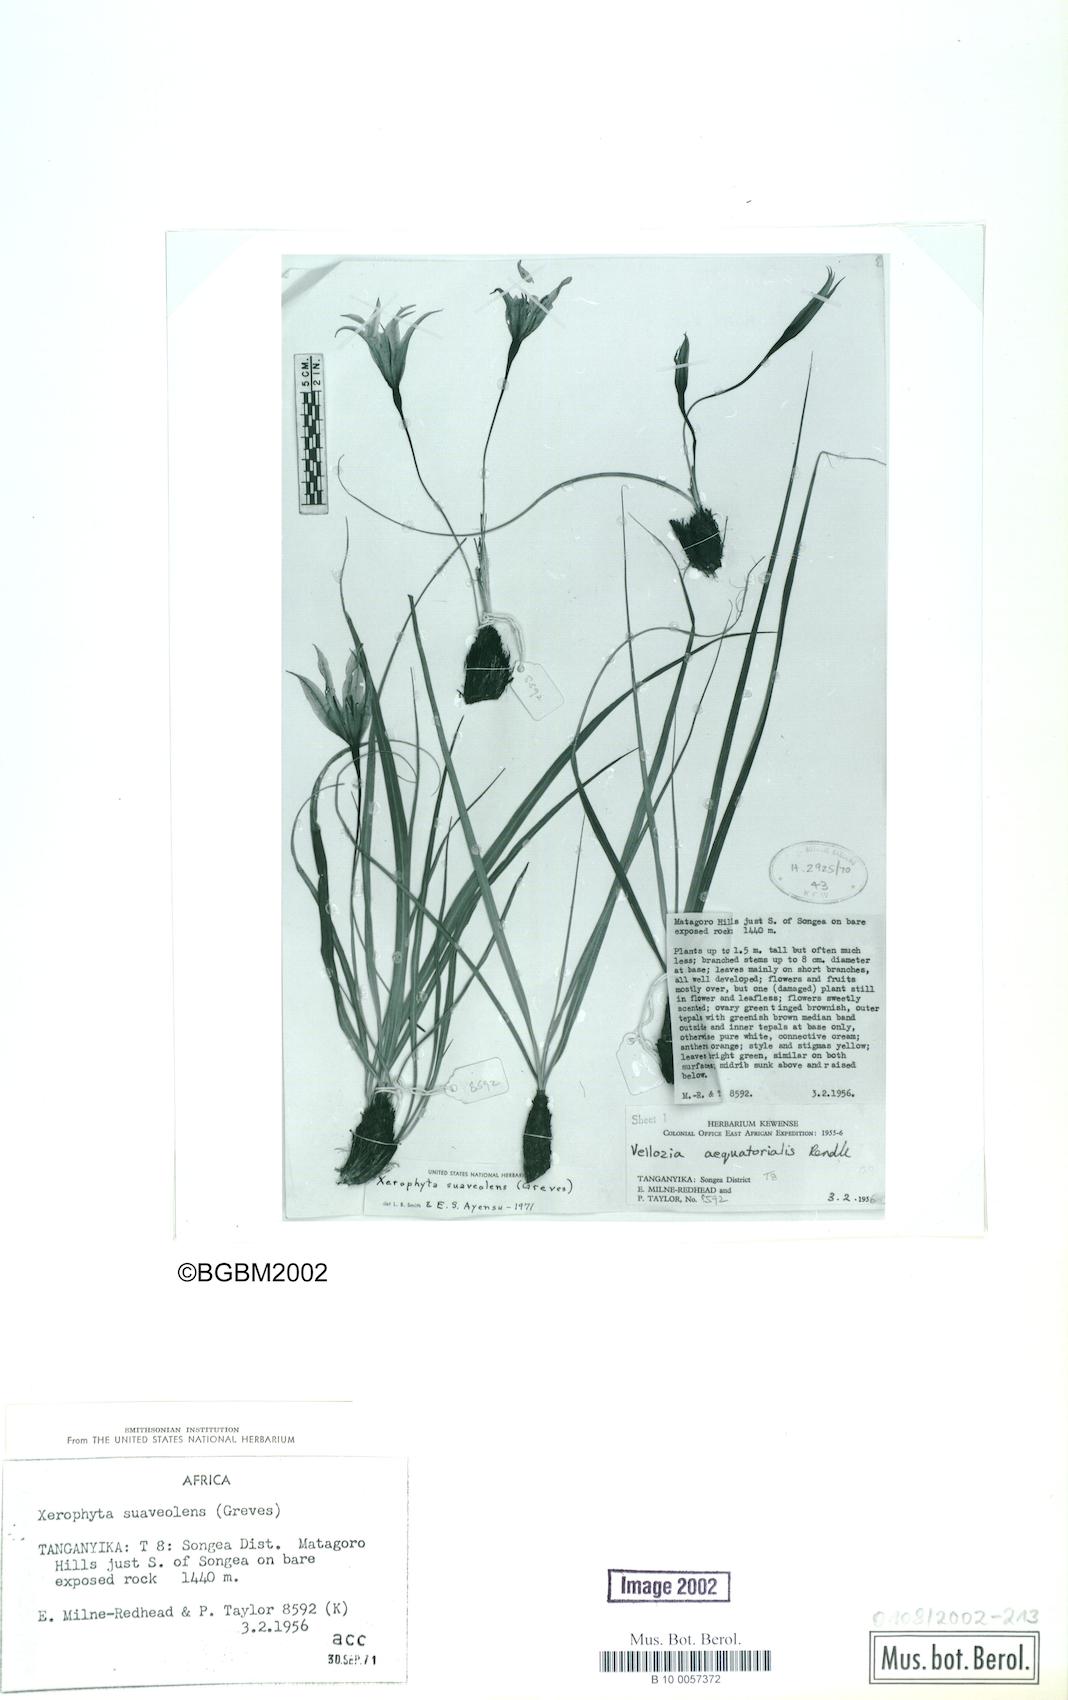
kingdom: Plantae
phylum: Tracheophyta
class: Liliopsida
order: Pandanales
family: Velloziaceae
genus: Xerophyta
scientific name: Xerophyta suaveolens
